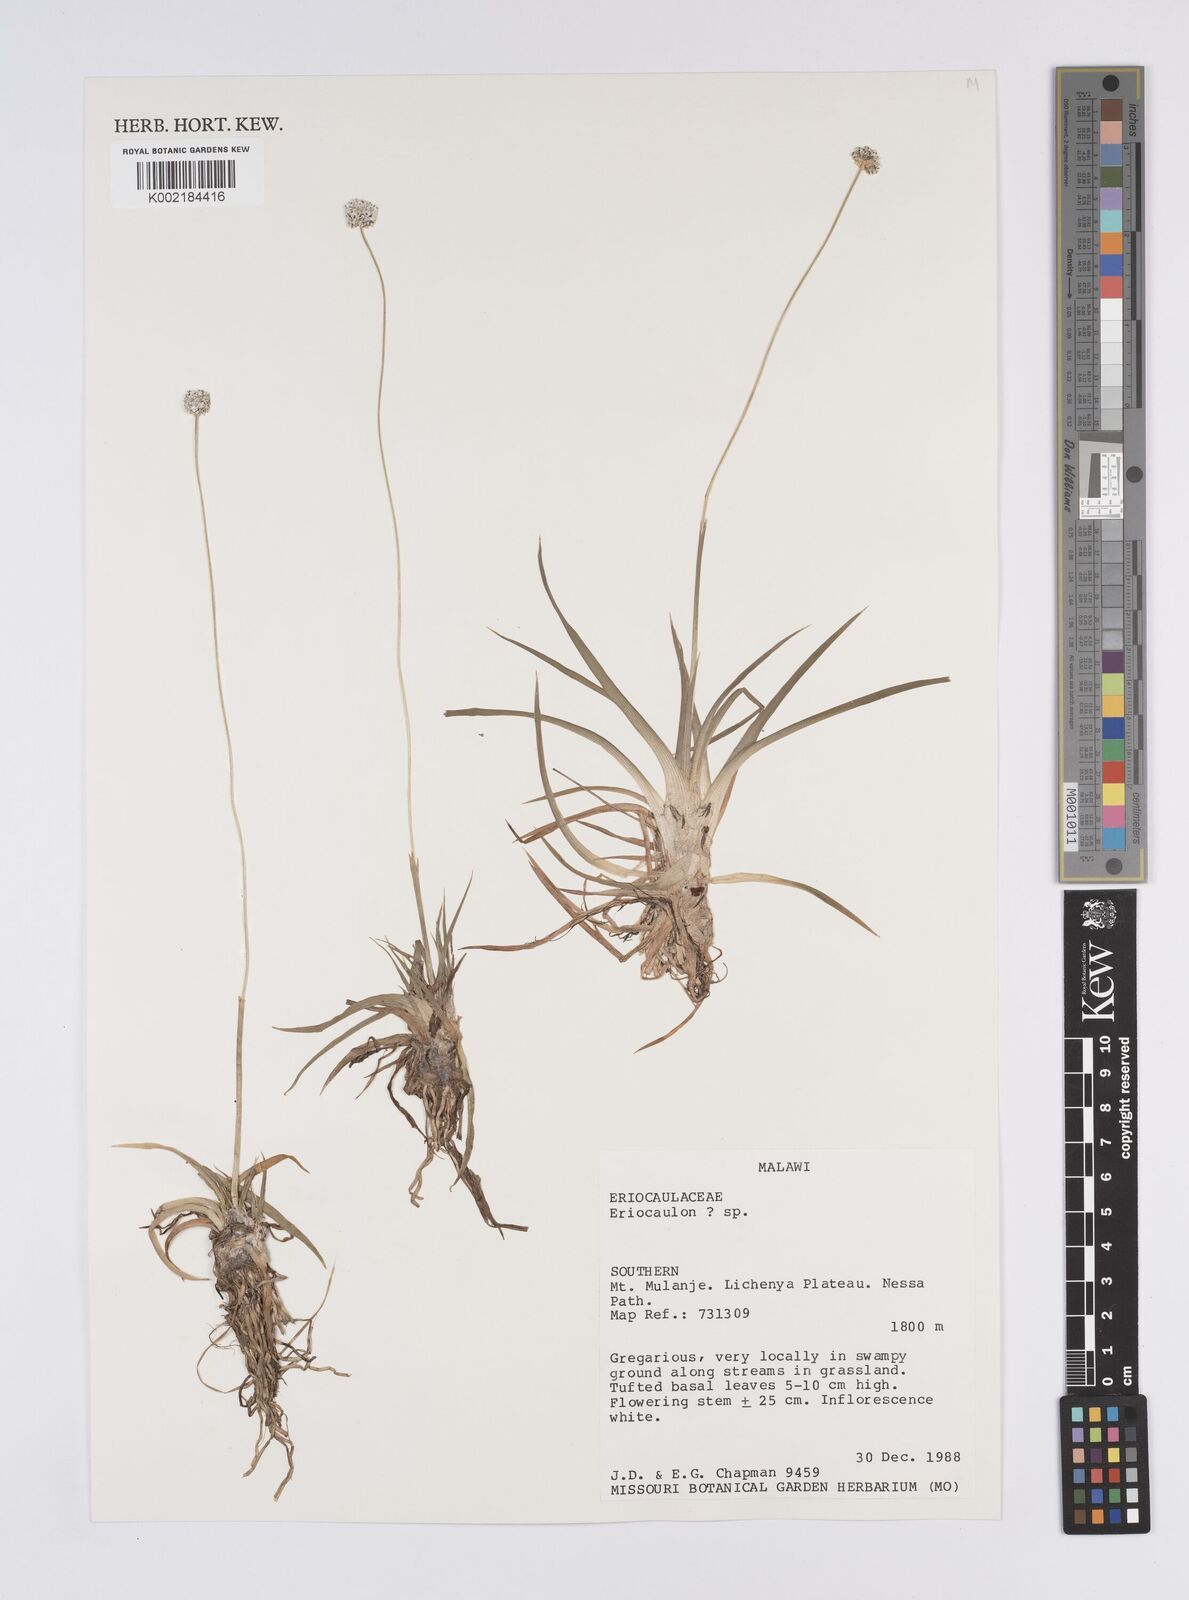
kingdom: Plantae
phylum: Tracheophyta
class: Liliopsida
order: Poales
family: Eriocaulaceae
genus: Eriocaulon
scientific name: Eriocaulon
